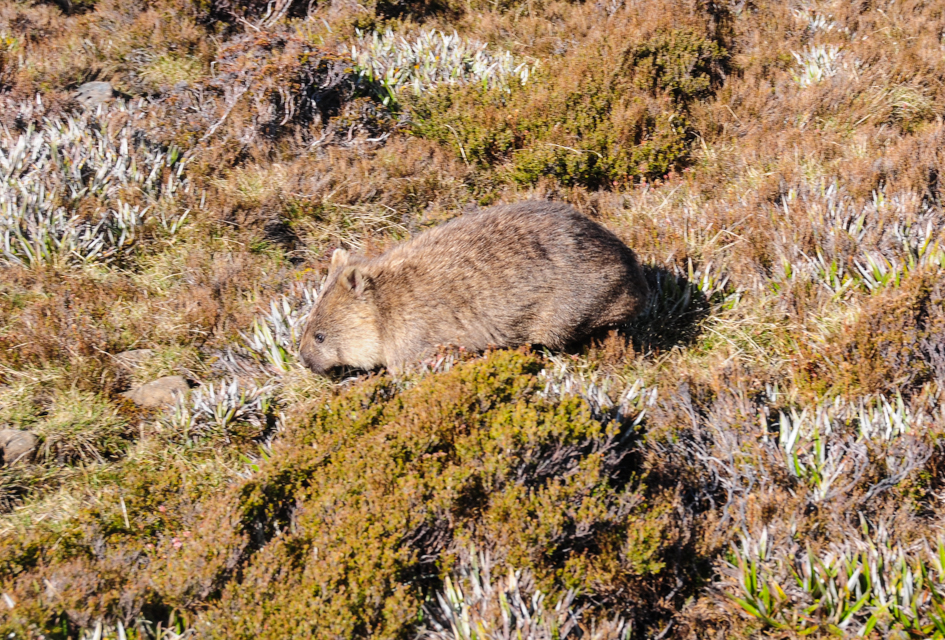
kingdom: Animalia
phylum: Chordata
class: Mammalia
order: Diprotodontia
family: Vombatidae
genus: Vombatus
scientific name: Vombatus ursinus
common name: Common wombat
